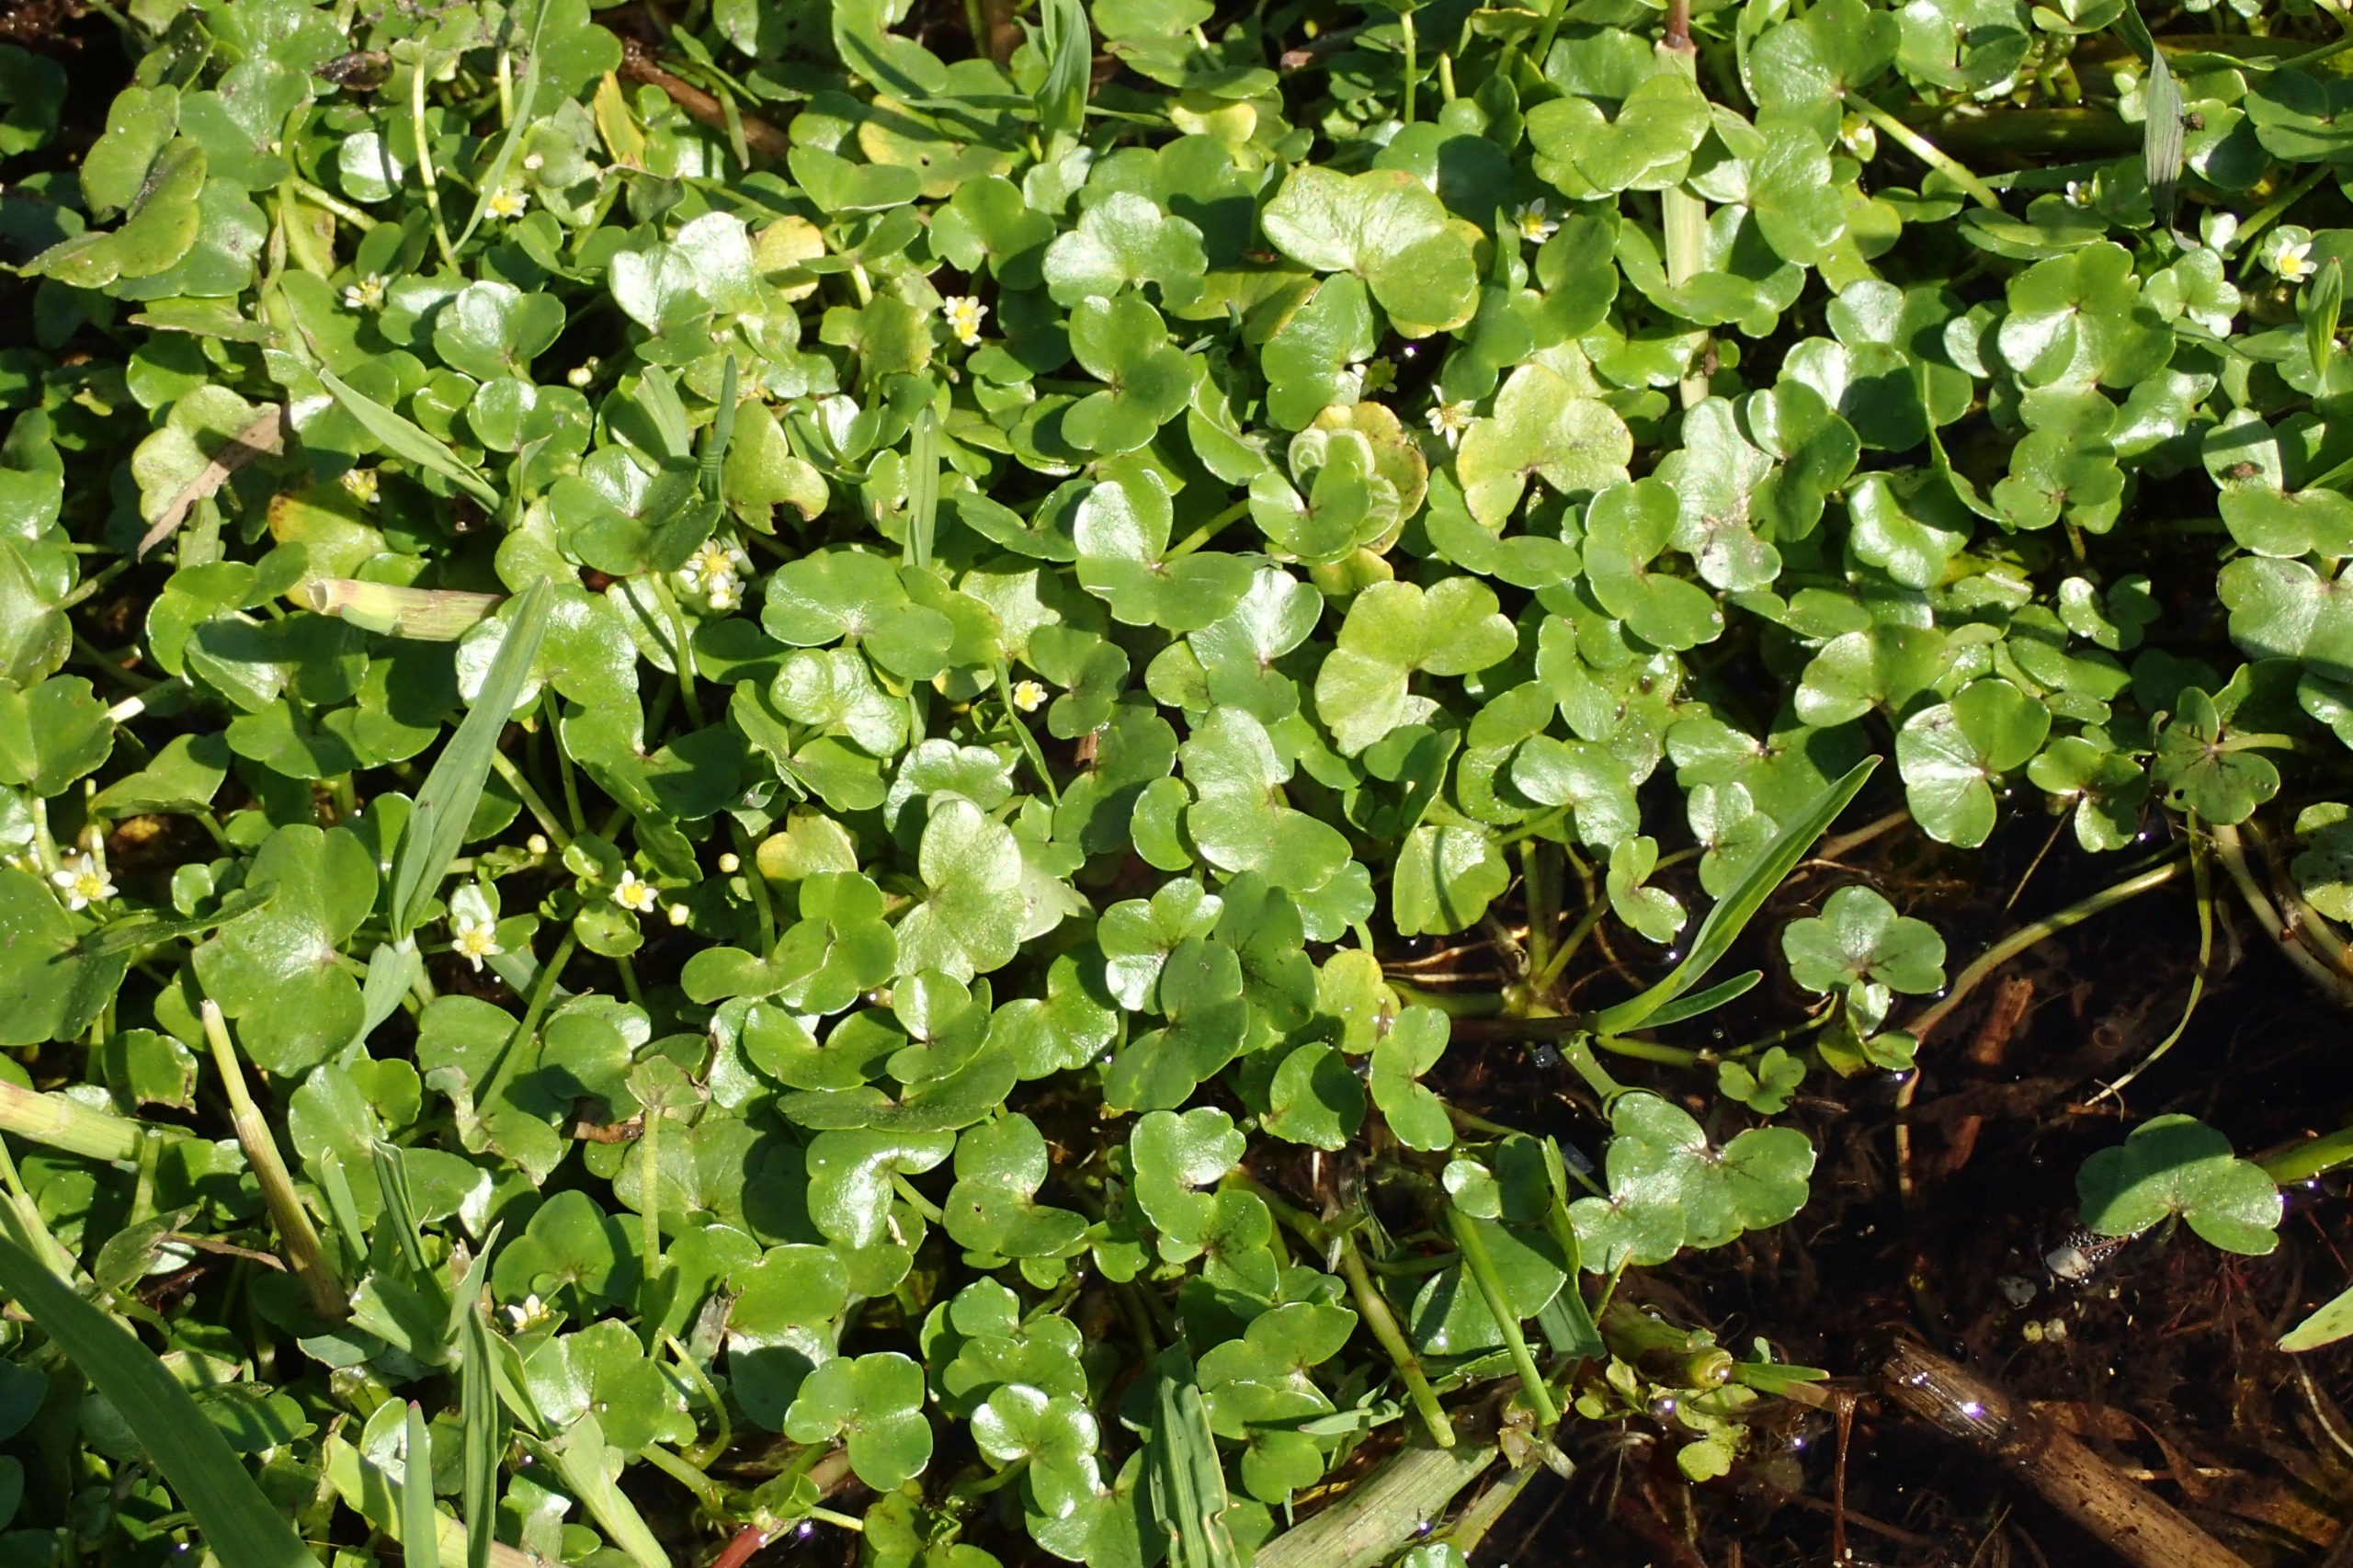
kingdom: Plantae
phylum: Tracheophyta
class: Magnoliopsida
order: Ranunculales
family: Ranunculaceae
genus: Ranunculus
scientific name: Ranunculus hederaceus
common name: Vedbend-vandranunkel
